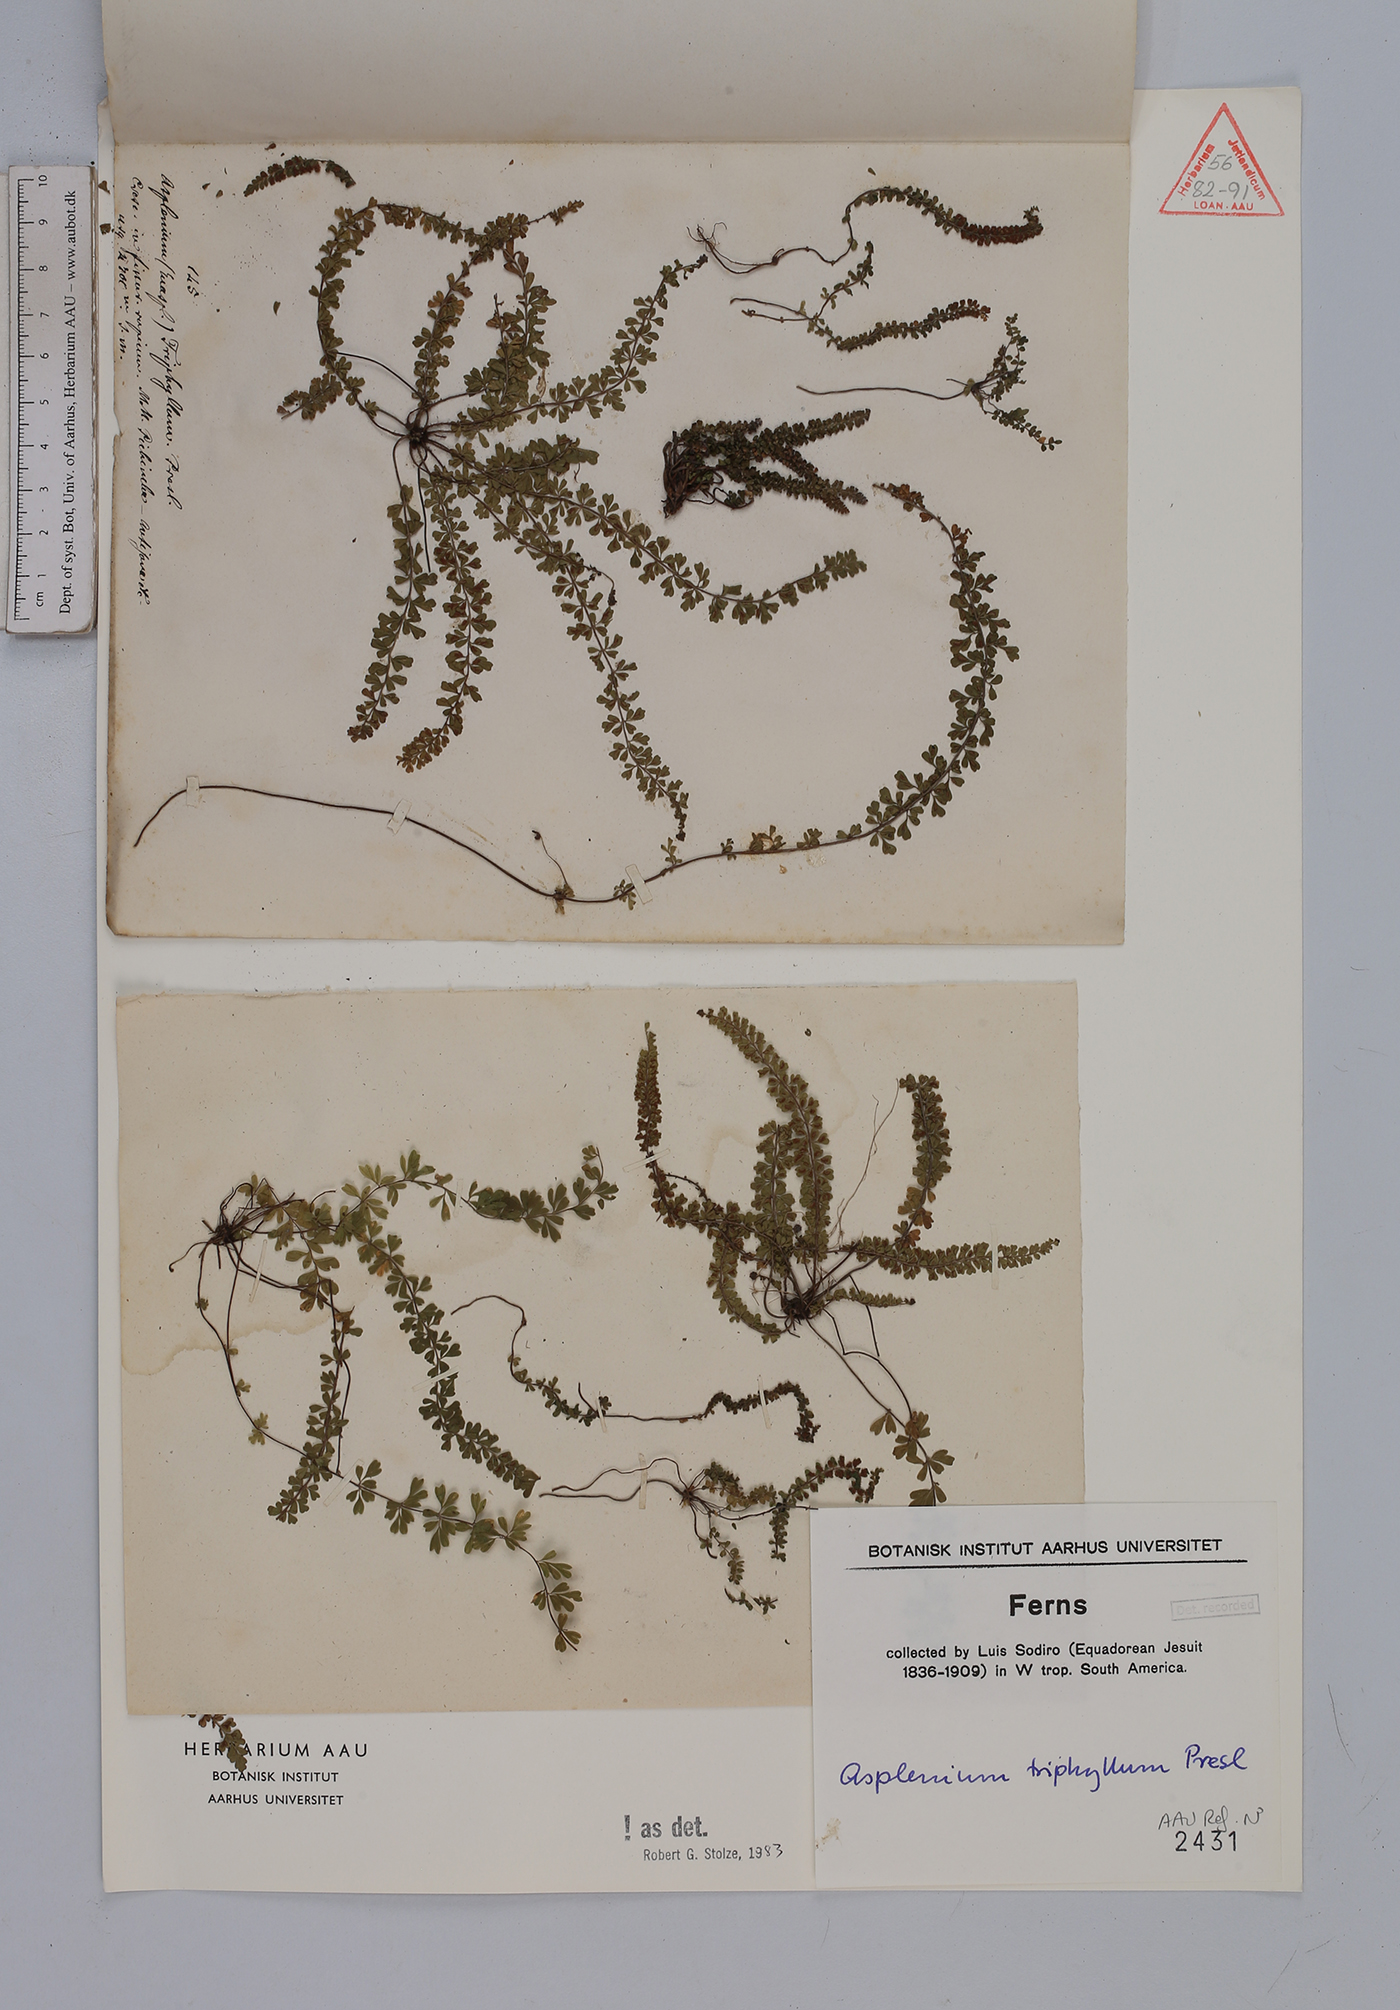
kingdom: Plantae
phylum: Tracheophyta
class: Polypodiopsida
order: Polypodiales
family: Aspleniaceae
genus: Asplenium
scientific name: Asplenium triphyllum
